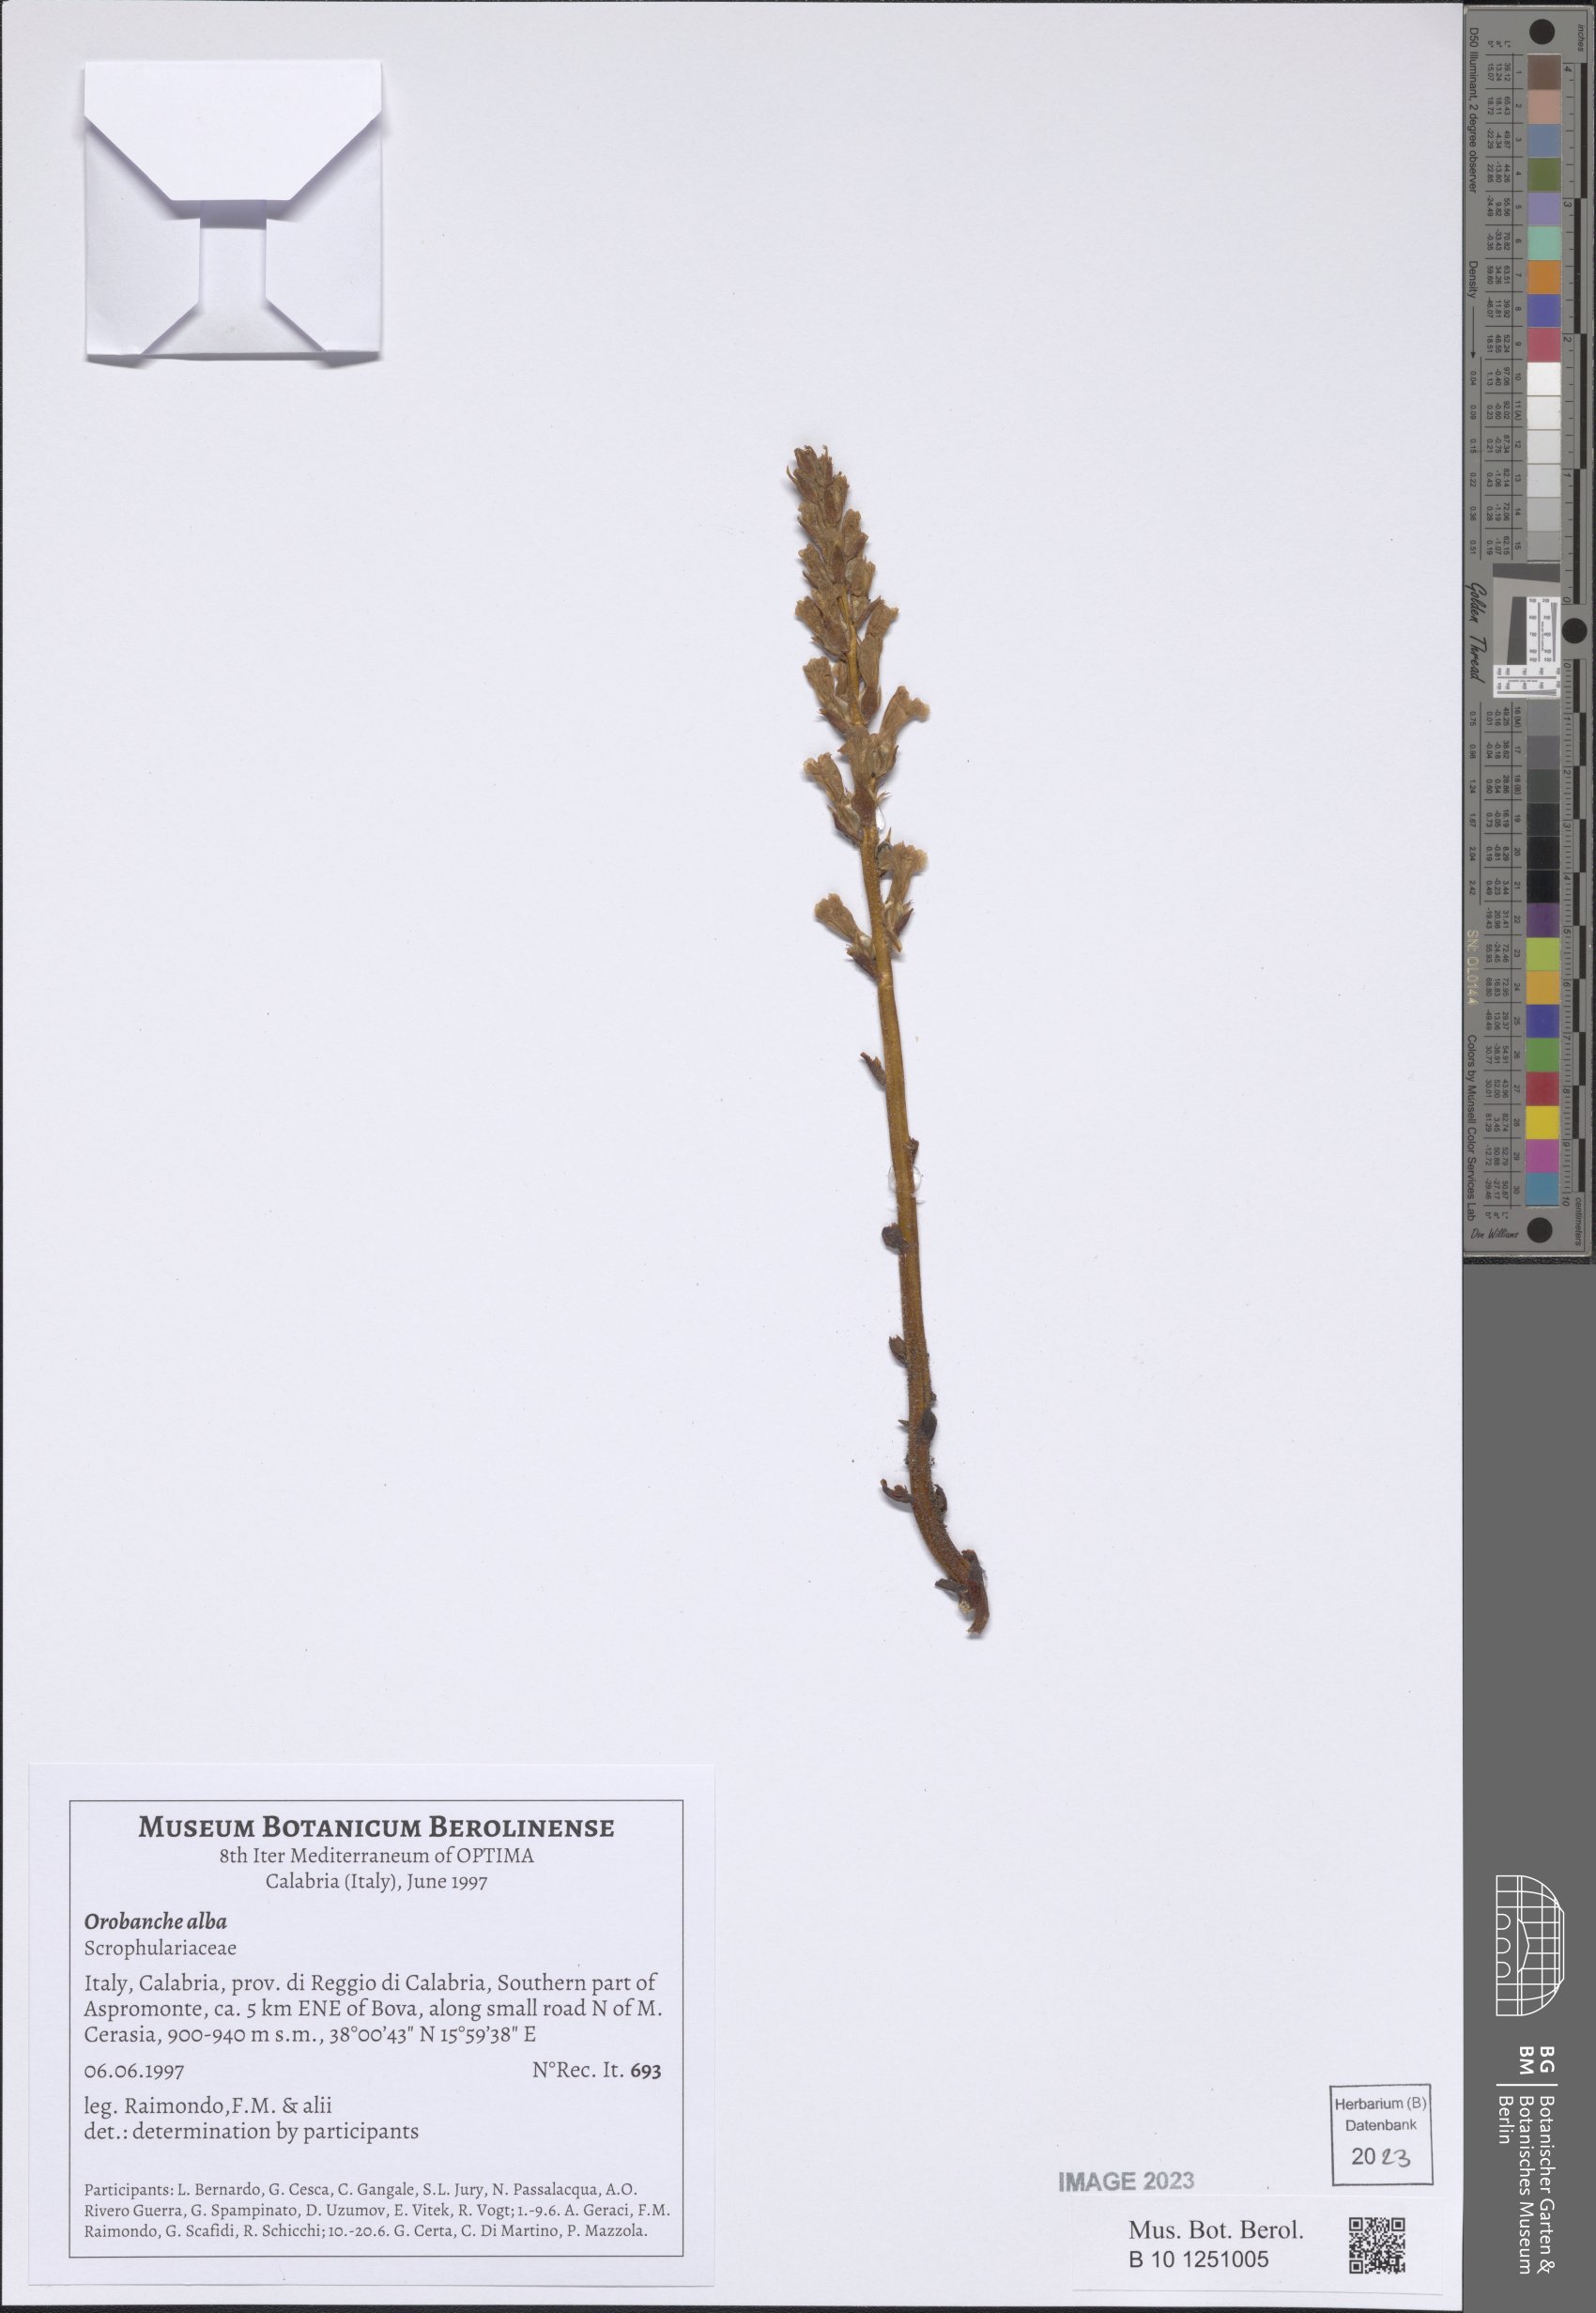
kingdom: Plantae
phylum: Tracheophyta
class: Magnoliopsida
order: Lamiales
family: Orobanchaceae
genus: Orobanche
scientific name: Orobanche alba
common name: Thyme broomrape
